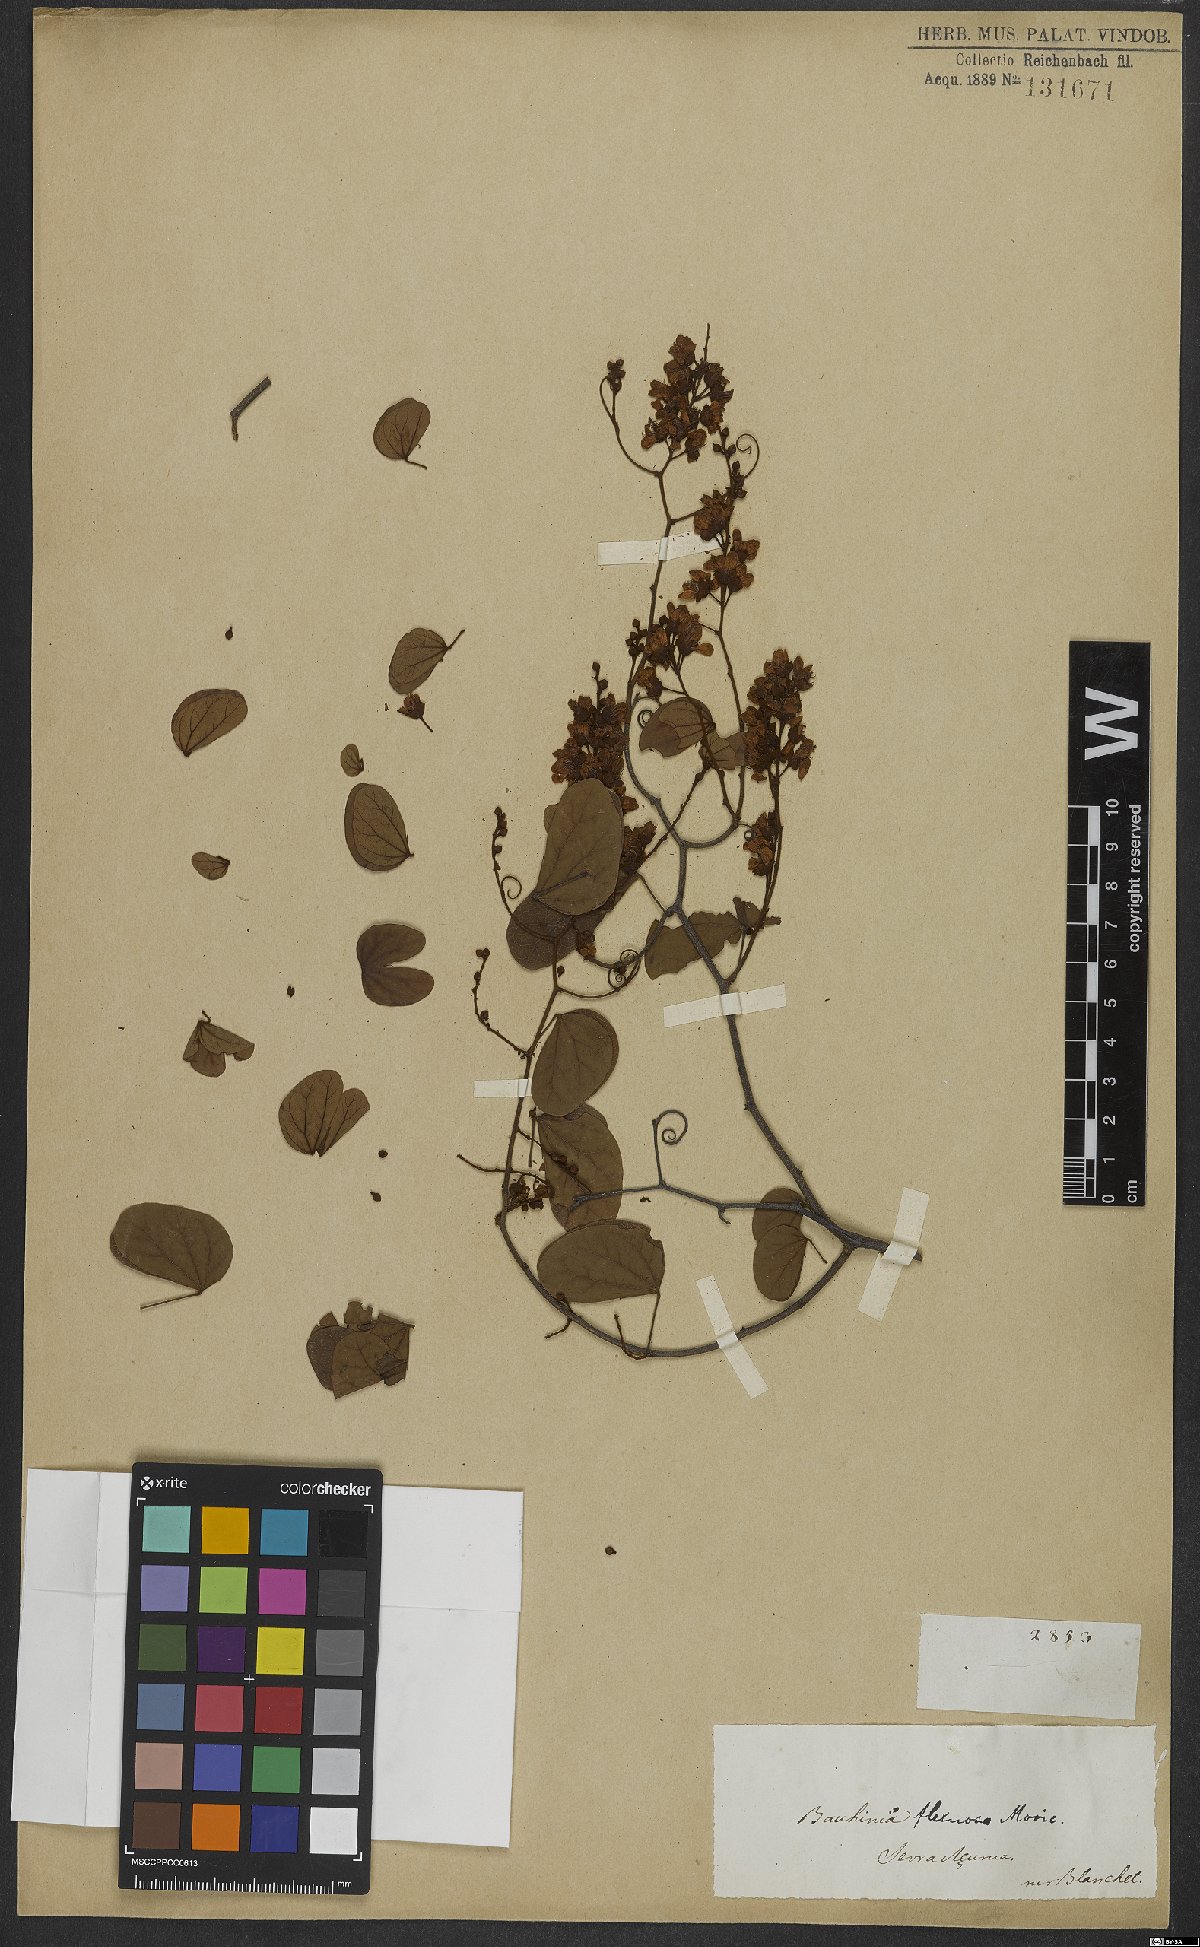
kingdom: Plantae
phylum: Tracheophyta
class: Magnoliopsida
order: Fabales
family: Fabaceae
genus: Schnella
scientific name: Schnella flexuosa
